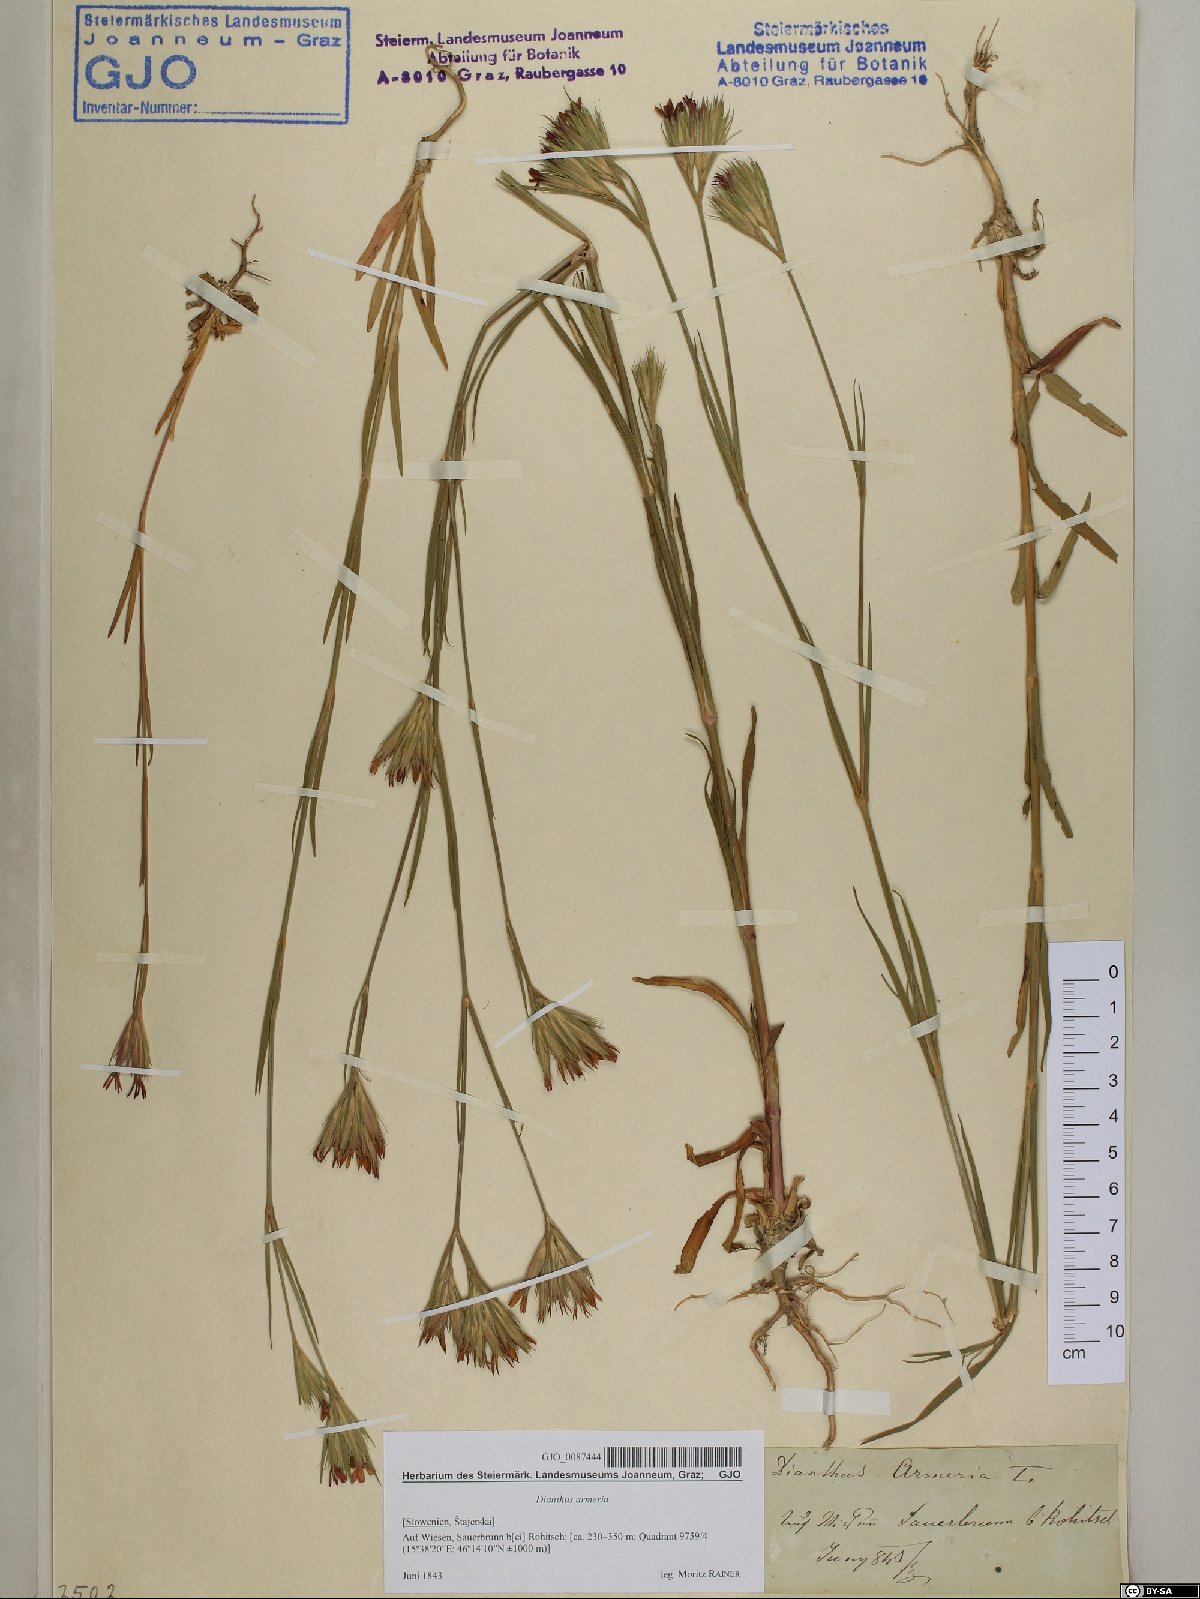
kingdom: Plantae
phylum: Tracheophyta
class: Magnoliopsida
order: Caryophyllales
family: Caryophyllaceae
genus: Dianthus
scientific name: Dianthus armeria
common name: Deptford pink
